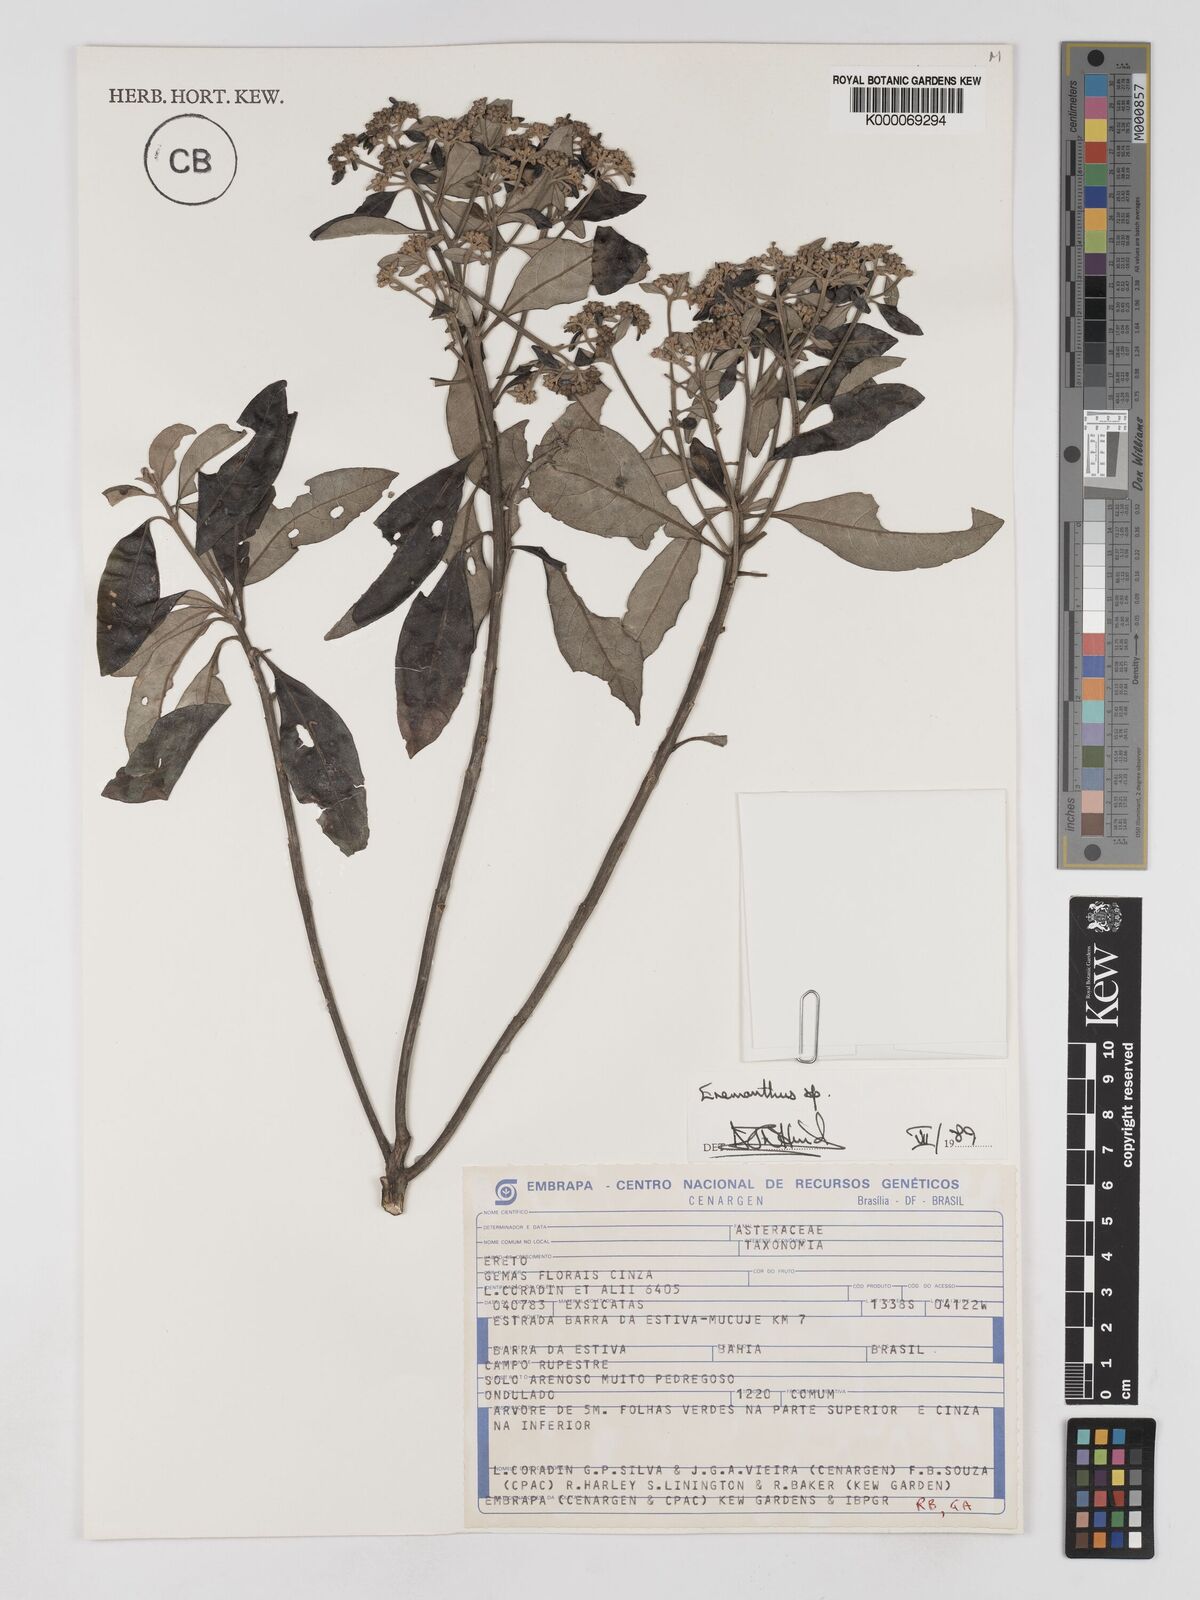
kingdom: Plantae
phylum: Tracheophyta
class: Magnoliopsida
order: Asterales
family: Asteraceae
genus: Eremanthus
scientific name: Eremanthus
